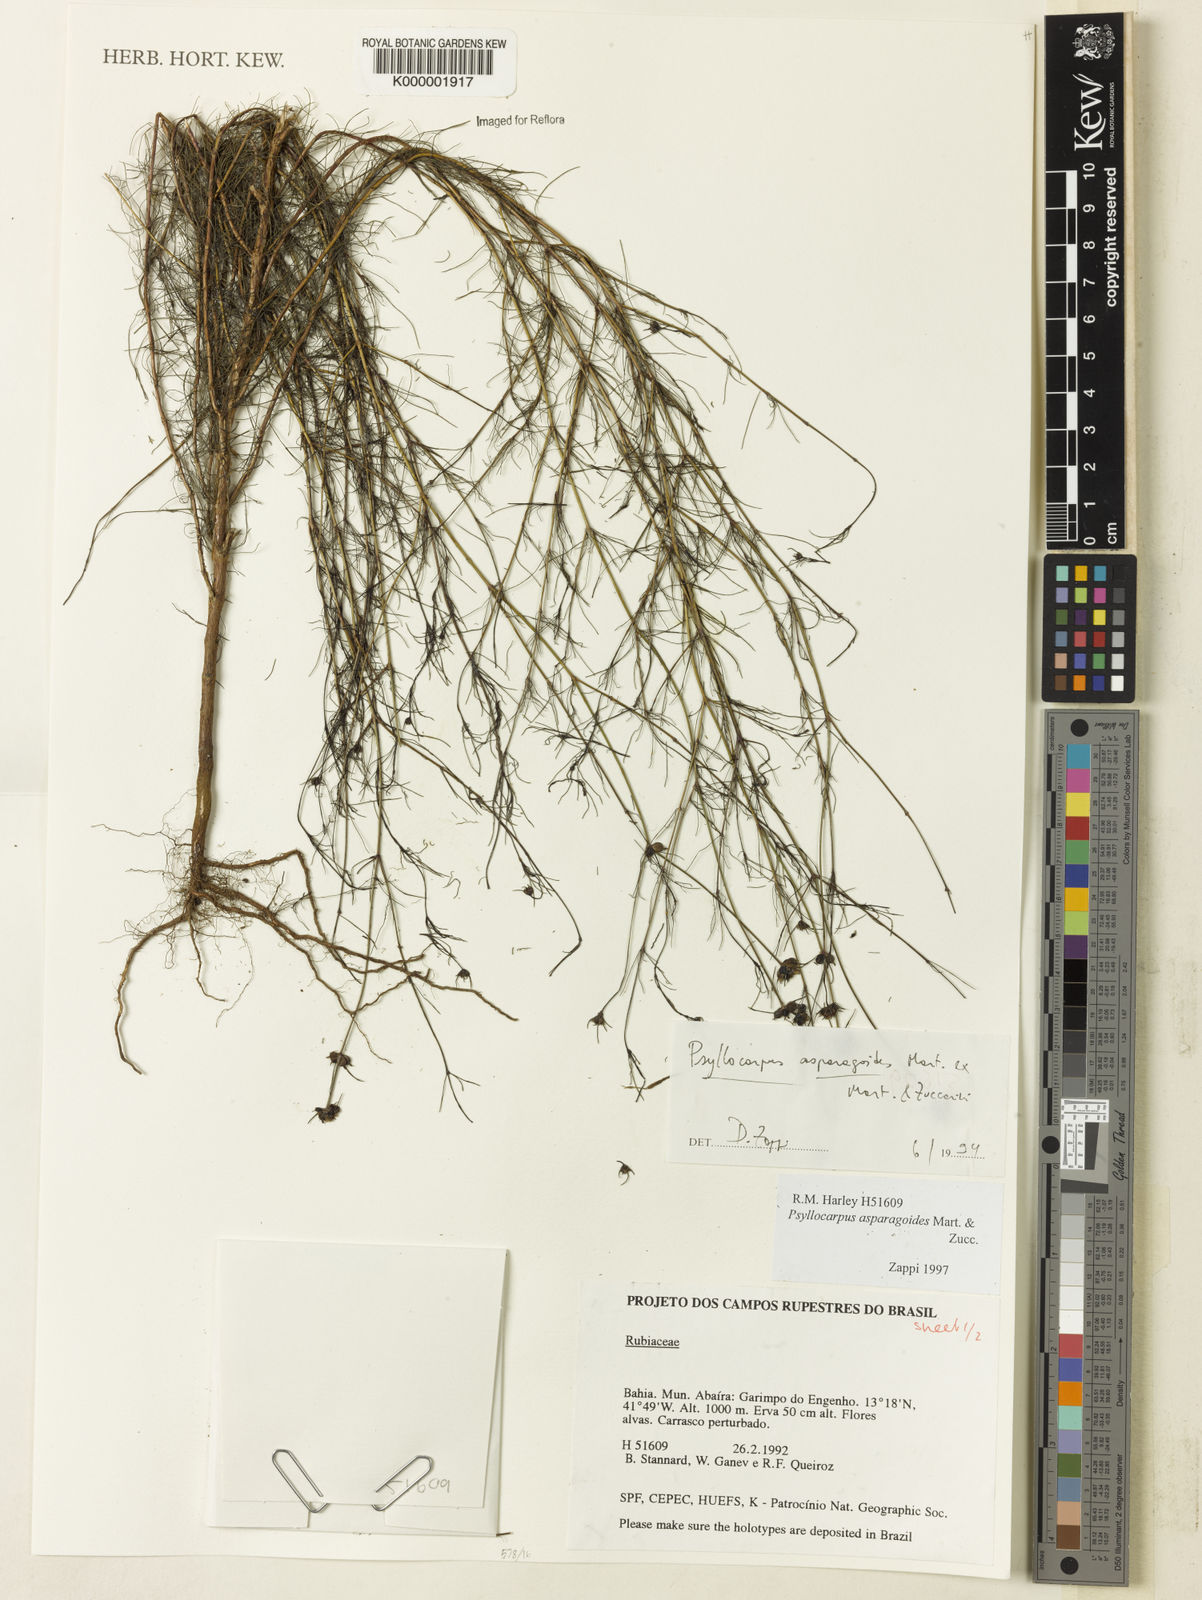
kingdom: Plantae
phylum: Tracheophyta
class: Magnoliopsida
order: Gentianales
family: Rubiaceae
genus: Psyllocarpus
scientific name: Psyllocarpus asparagoides
